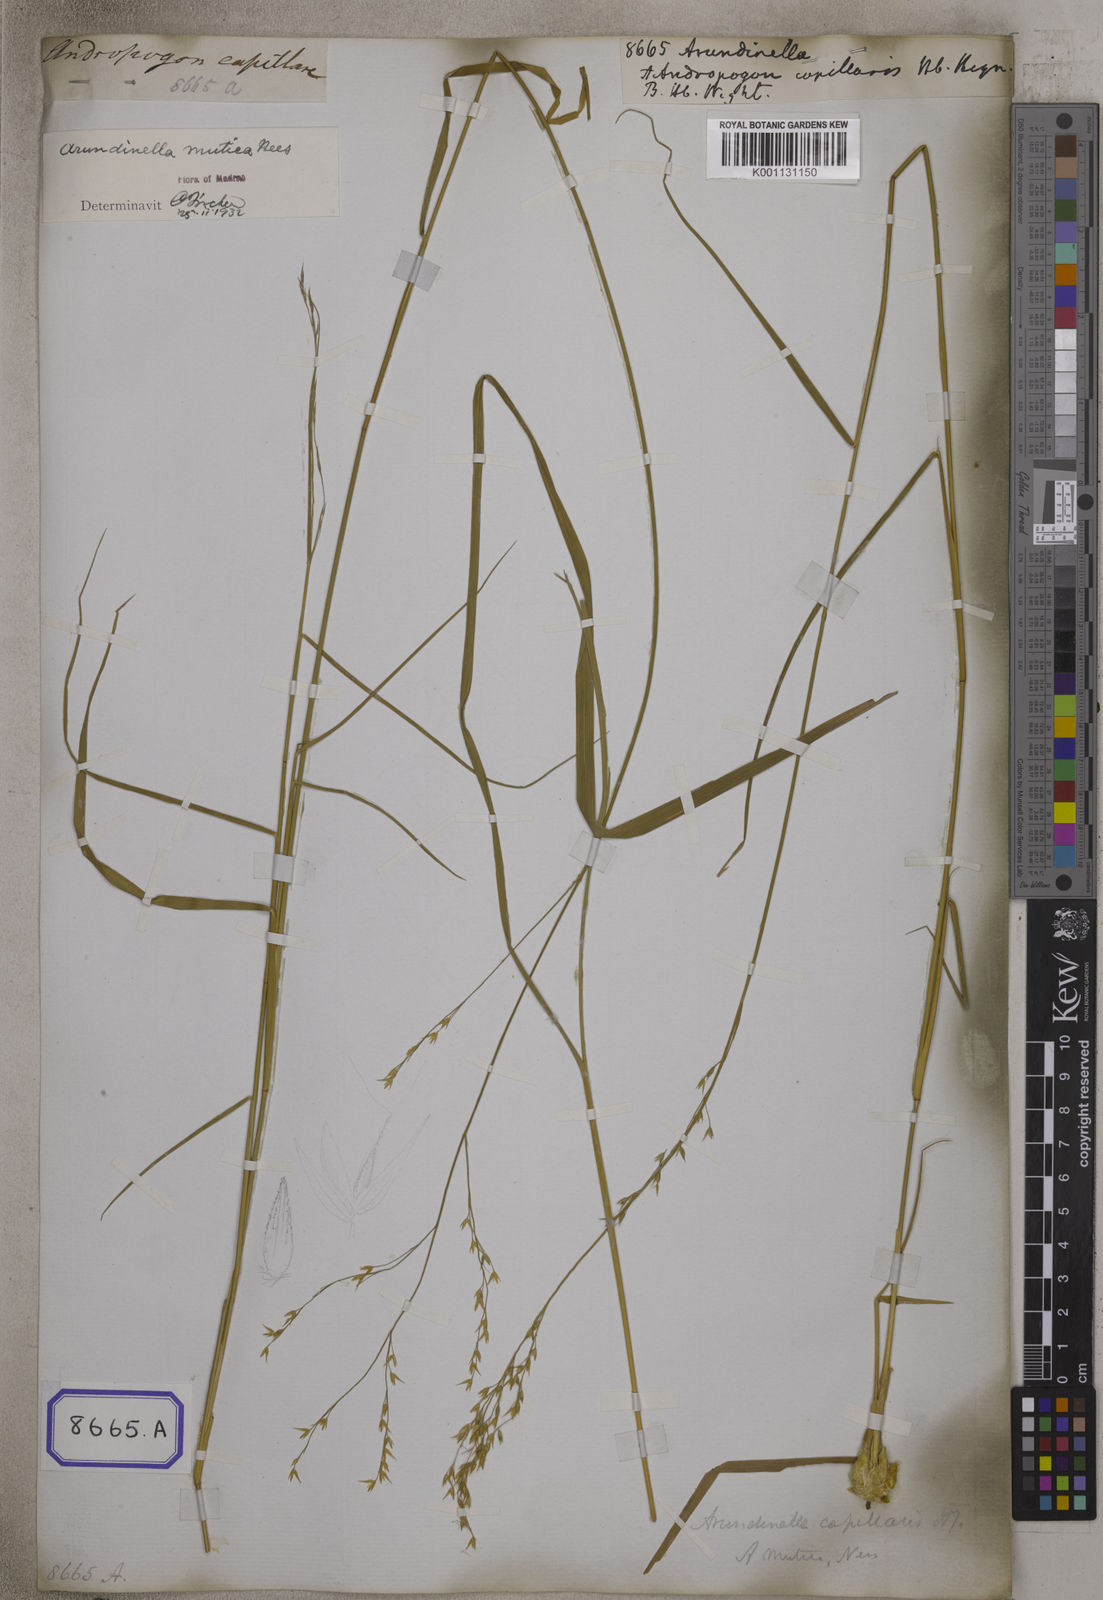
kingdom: Plantae
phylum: Tracheophyta
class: Liliopsida
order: Poales
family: Poaceae
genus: Arundinella
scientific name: Arundinella
